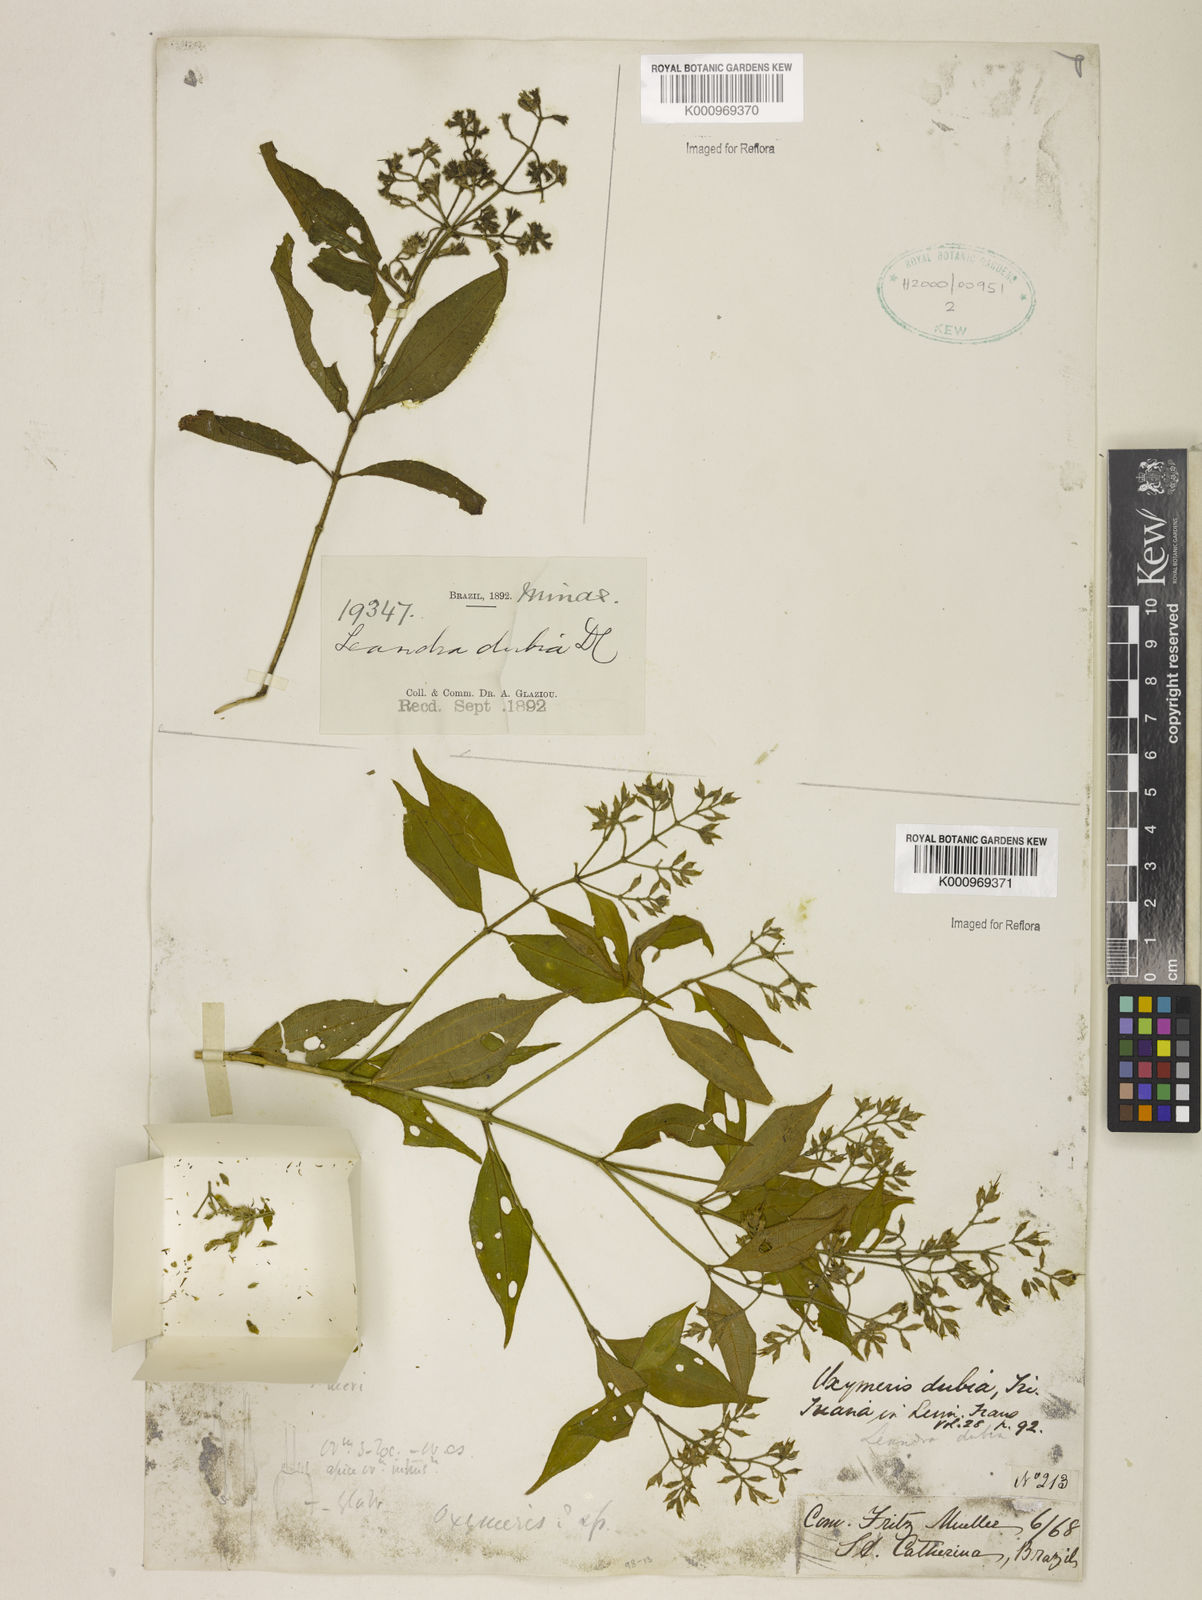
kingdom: Plantae
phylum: Tracheophyta
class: Magnoliopsida
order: Myrtales
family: Melastomataceae
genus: Miconia
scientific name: Miconia dubia
